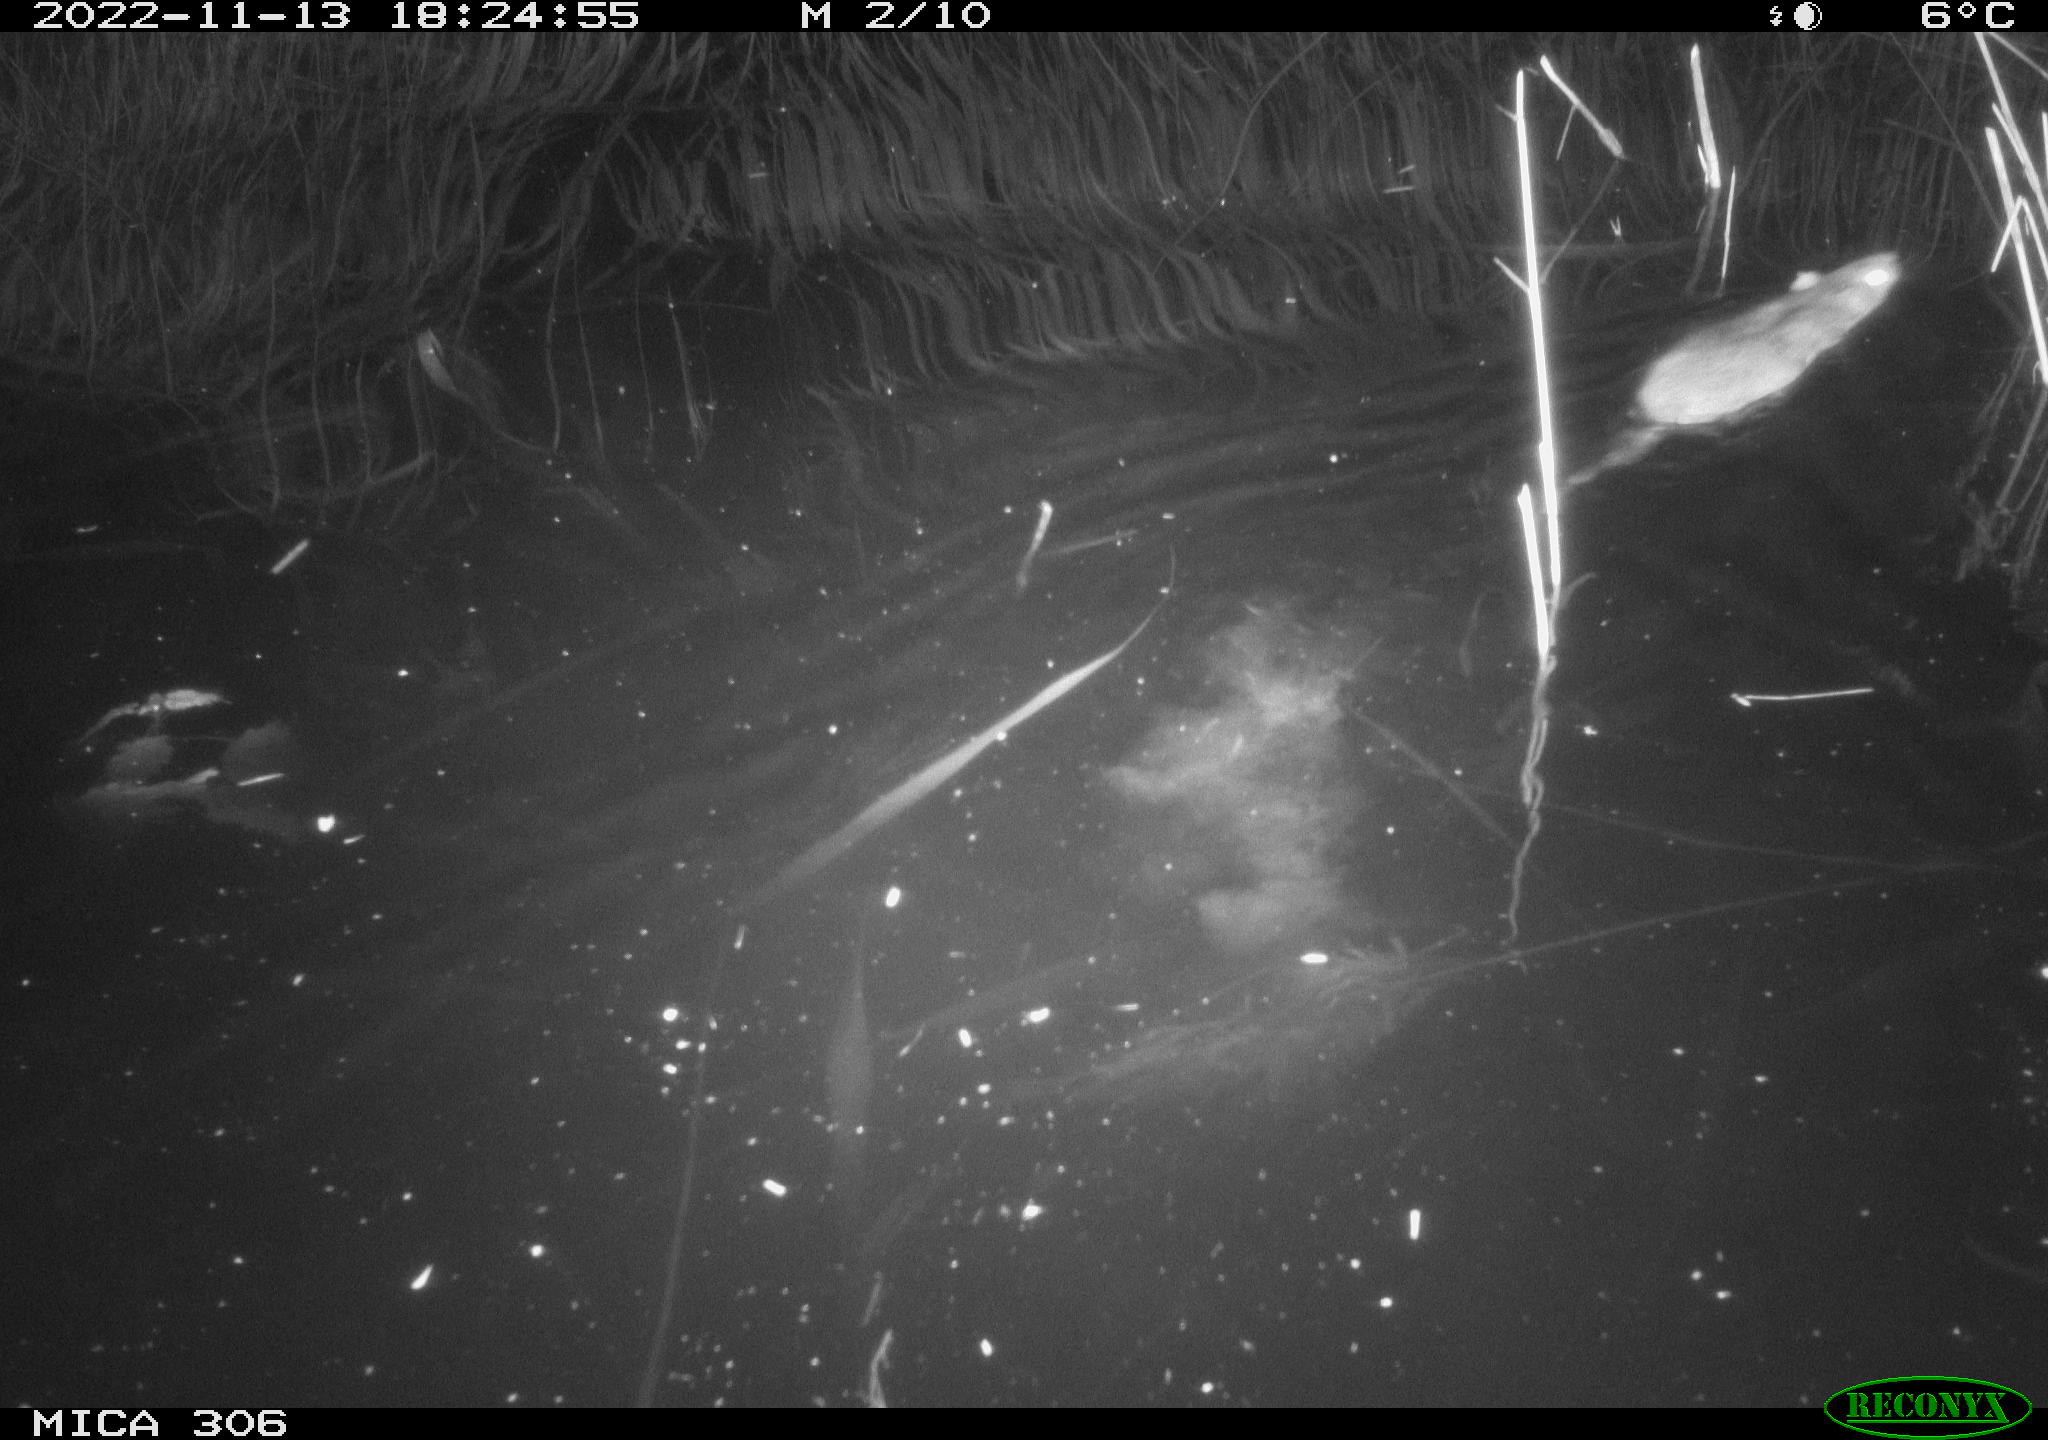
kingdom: Animalia
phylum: Chordata
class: Mammalia
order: Rodentia
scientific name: Rodentia
